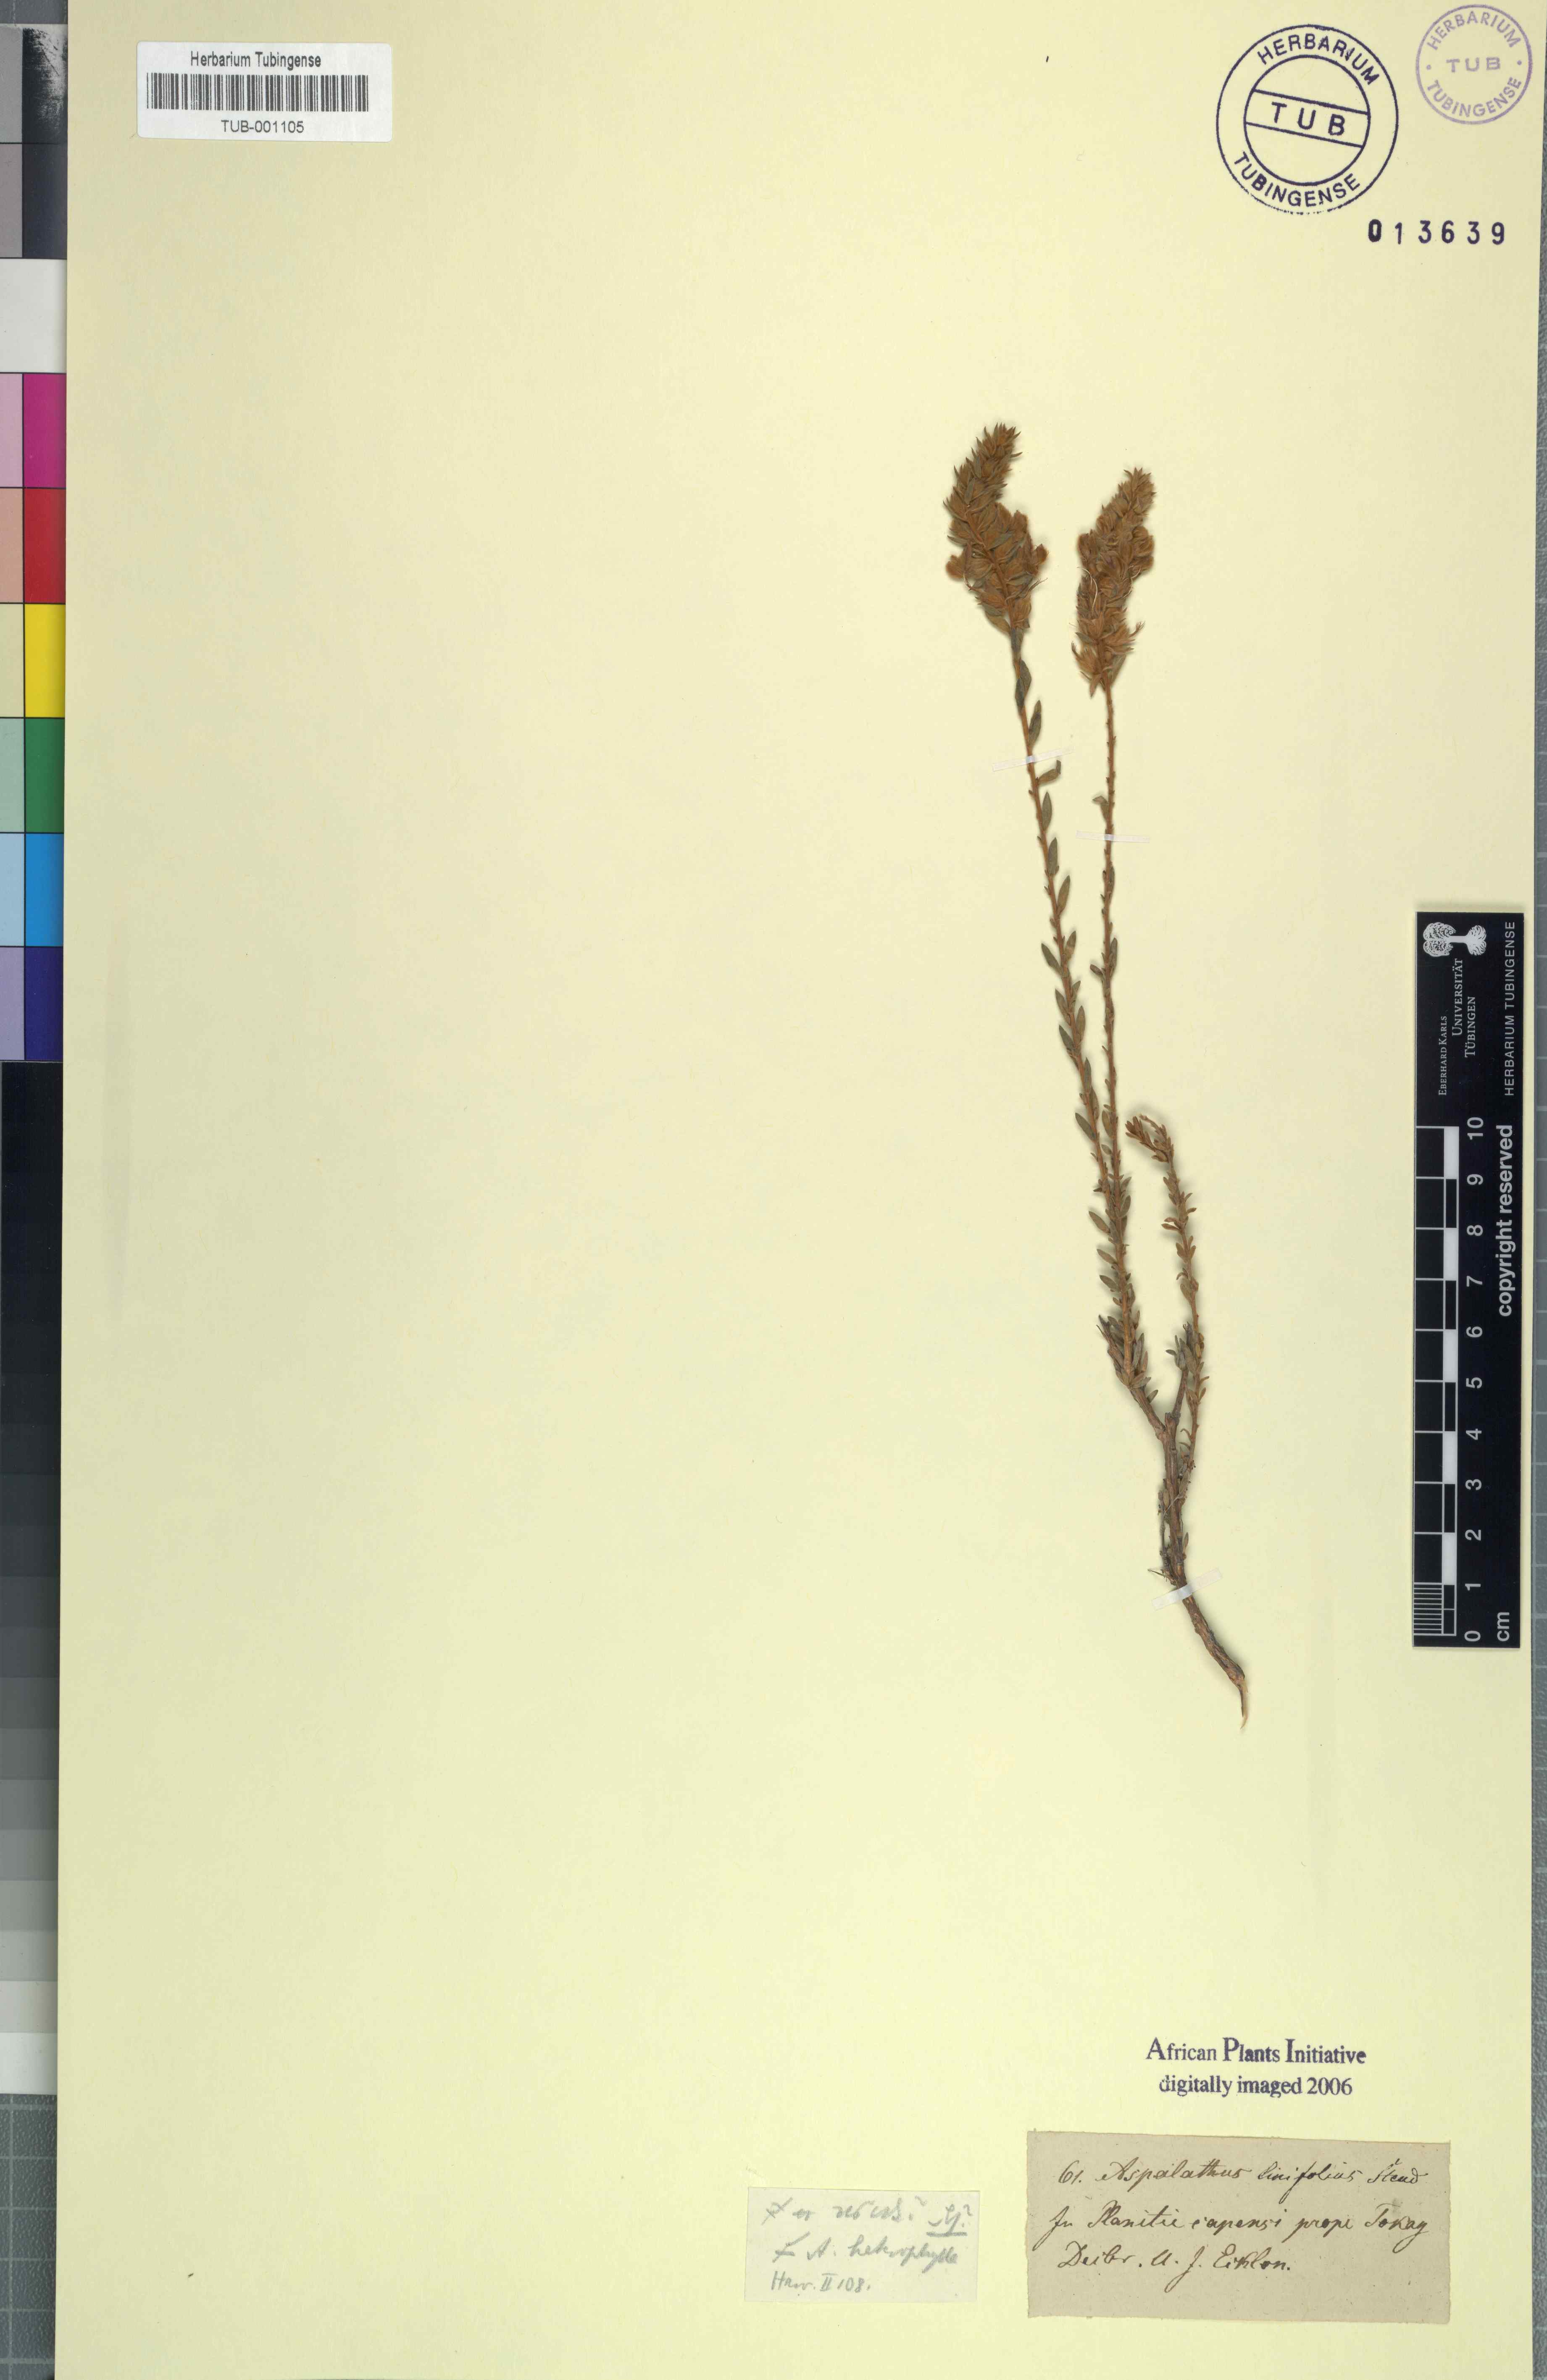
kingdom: Plantae
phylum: Tracheophyta
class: Magnoliopsida
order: Fabales
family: Fabaceae
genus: Aspalathus
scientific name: Aspalathus heterophylla
